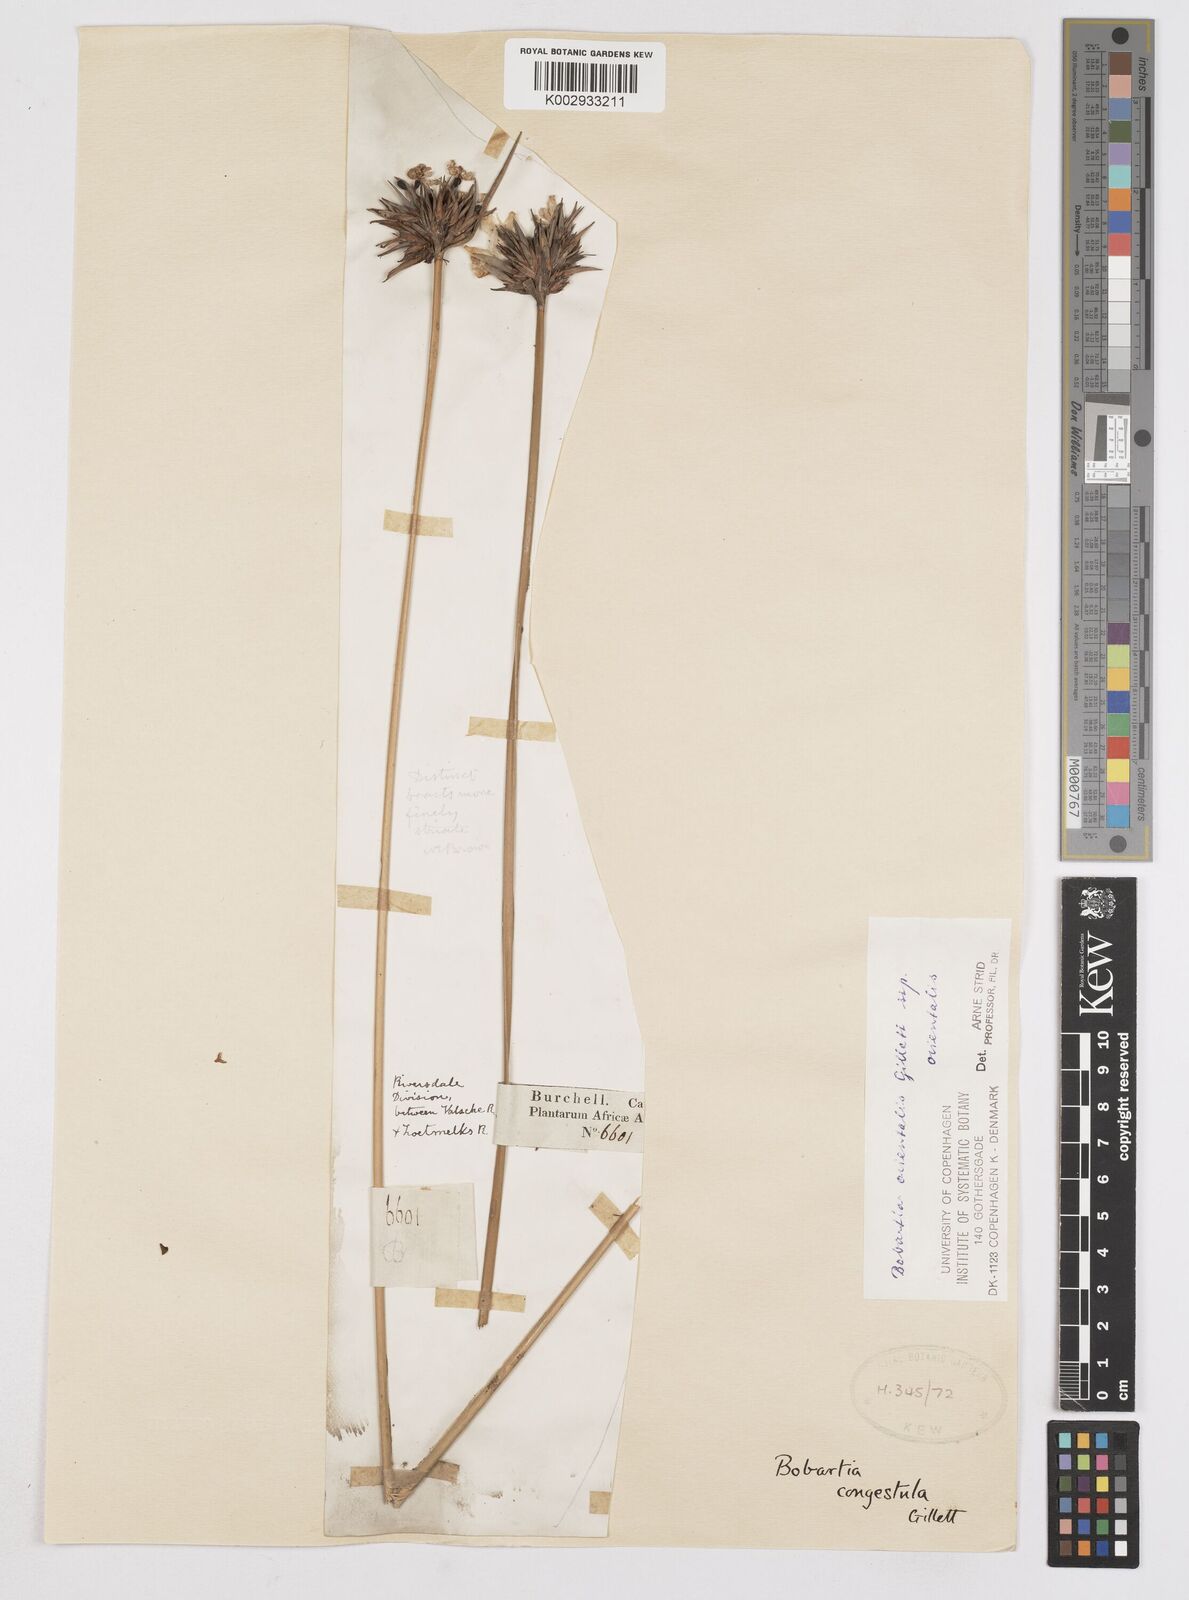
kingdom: Plantae
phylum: Tracheophyta
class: Liliopsida
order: Asparagales
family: Iridaceae
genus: Bobartia
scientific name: Bobartia orientalis
